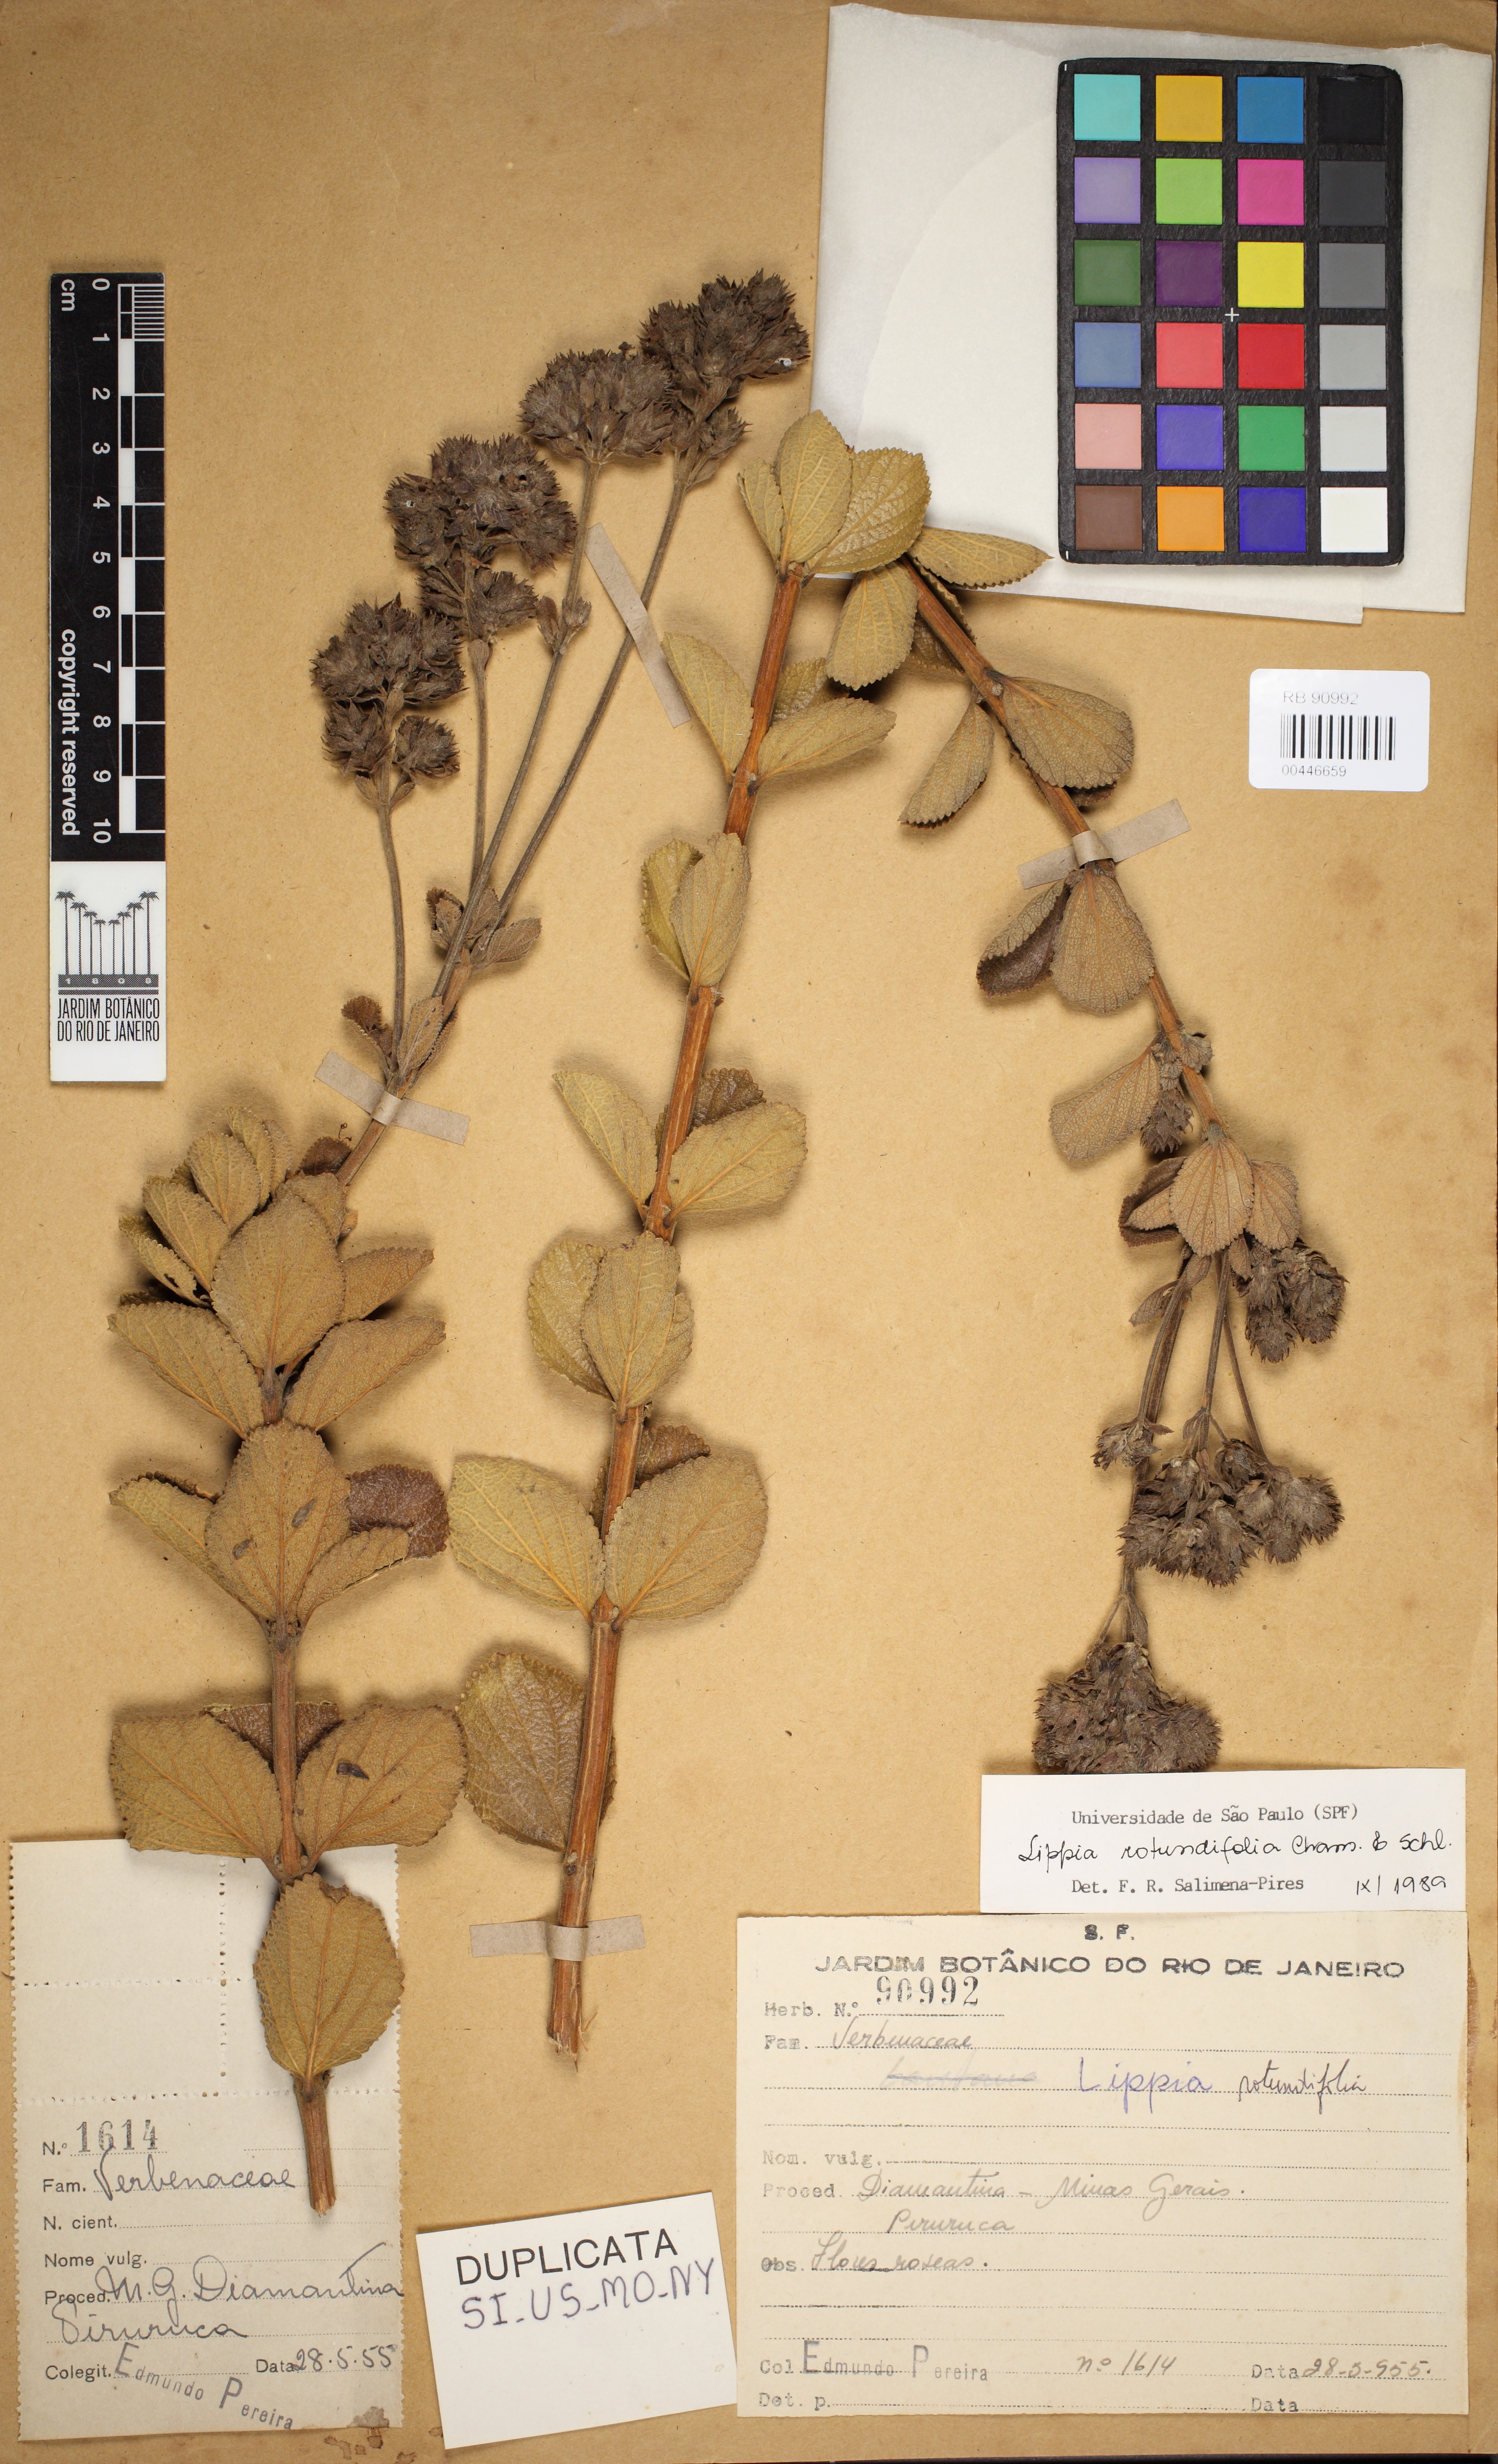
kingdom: Plantae
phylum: Tracheophyta
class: Magnoliopsida
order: Lamiales
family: Verbenaceae
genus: Lippia
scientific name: Lippia rotundifolia
